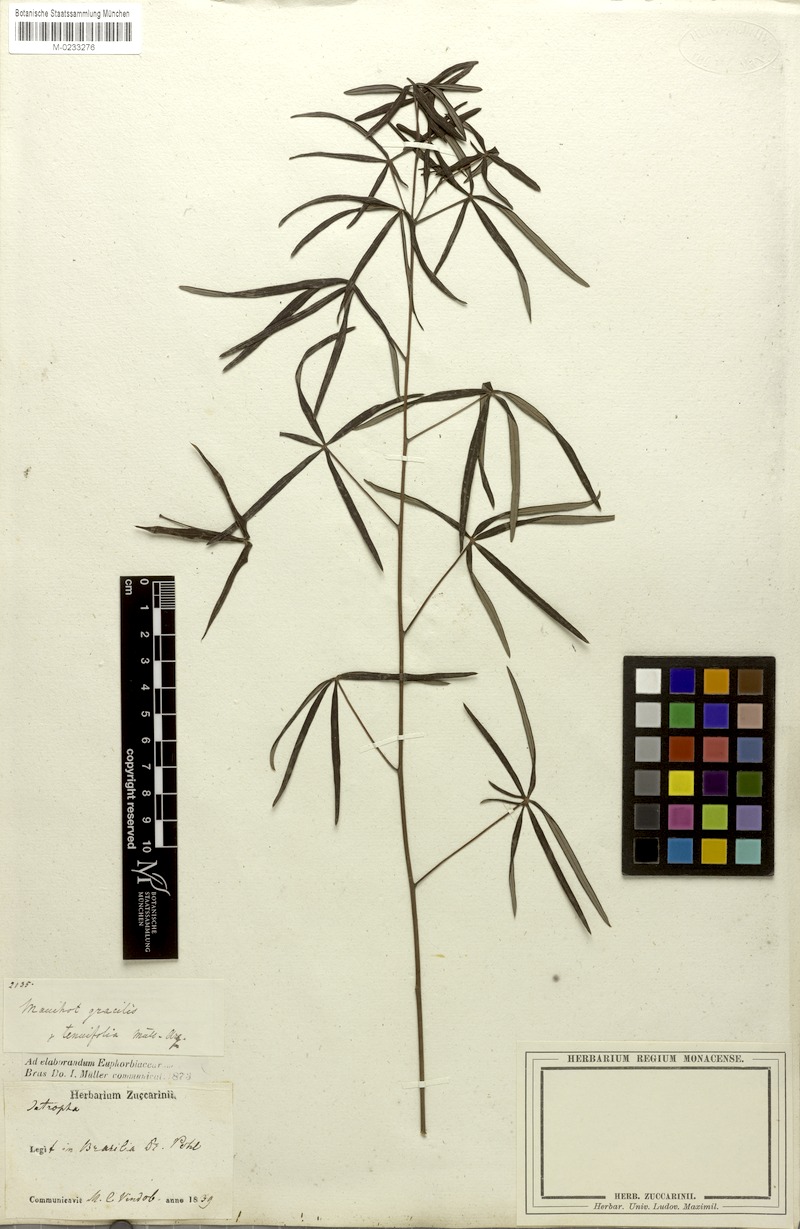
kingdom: Plantae
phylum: Tracheophyta
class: Magnoliopsida
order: Malpighiales
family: Euphorbiaceae
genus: Manihot
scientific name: Manihot pentaphylla
